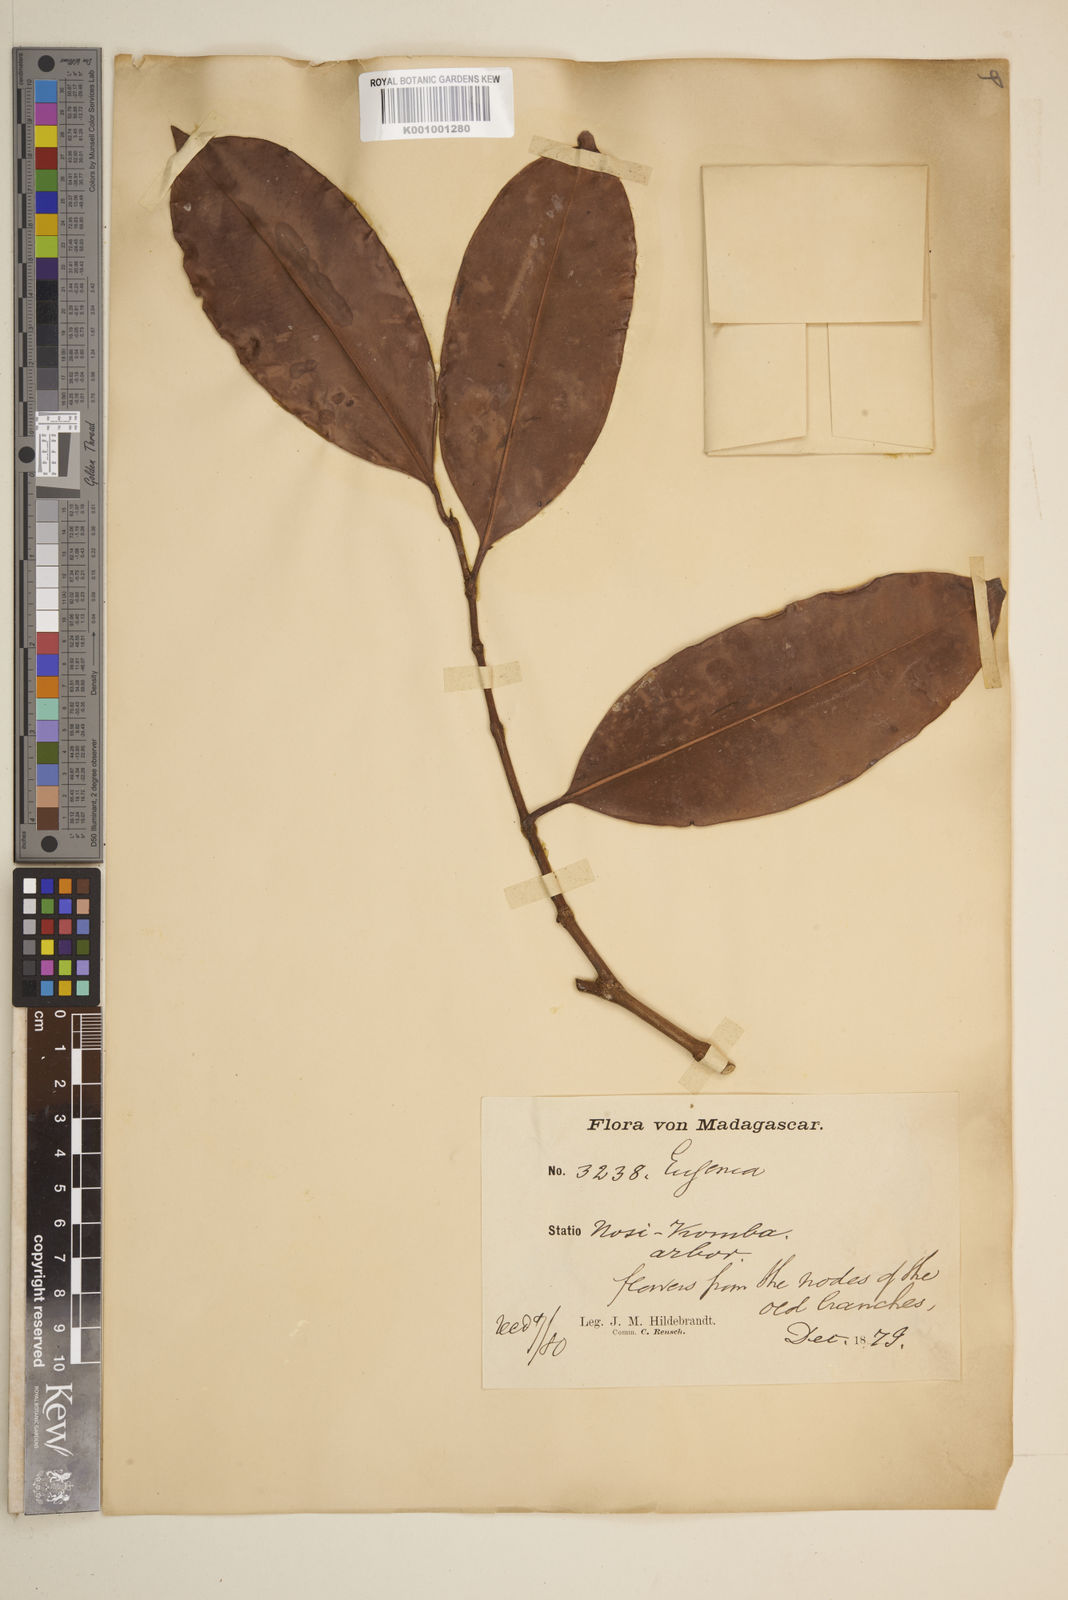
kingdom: Plantae
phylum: Tracheophyta
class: Magnoliopsida
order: Myrtales
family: Myrtaceae
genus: Eugenia
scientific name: Eugenia louvelii
